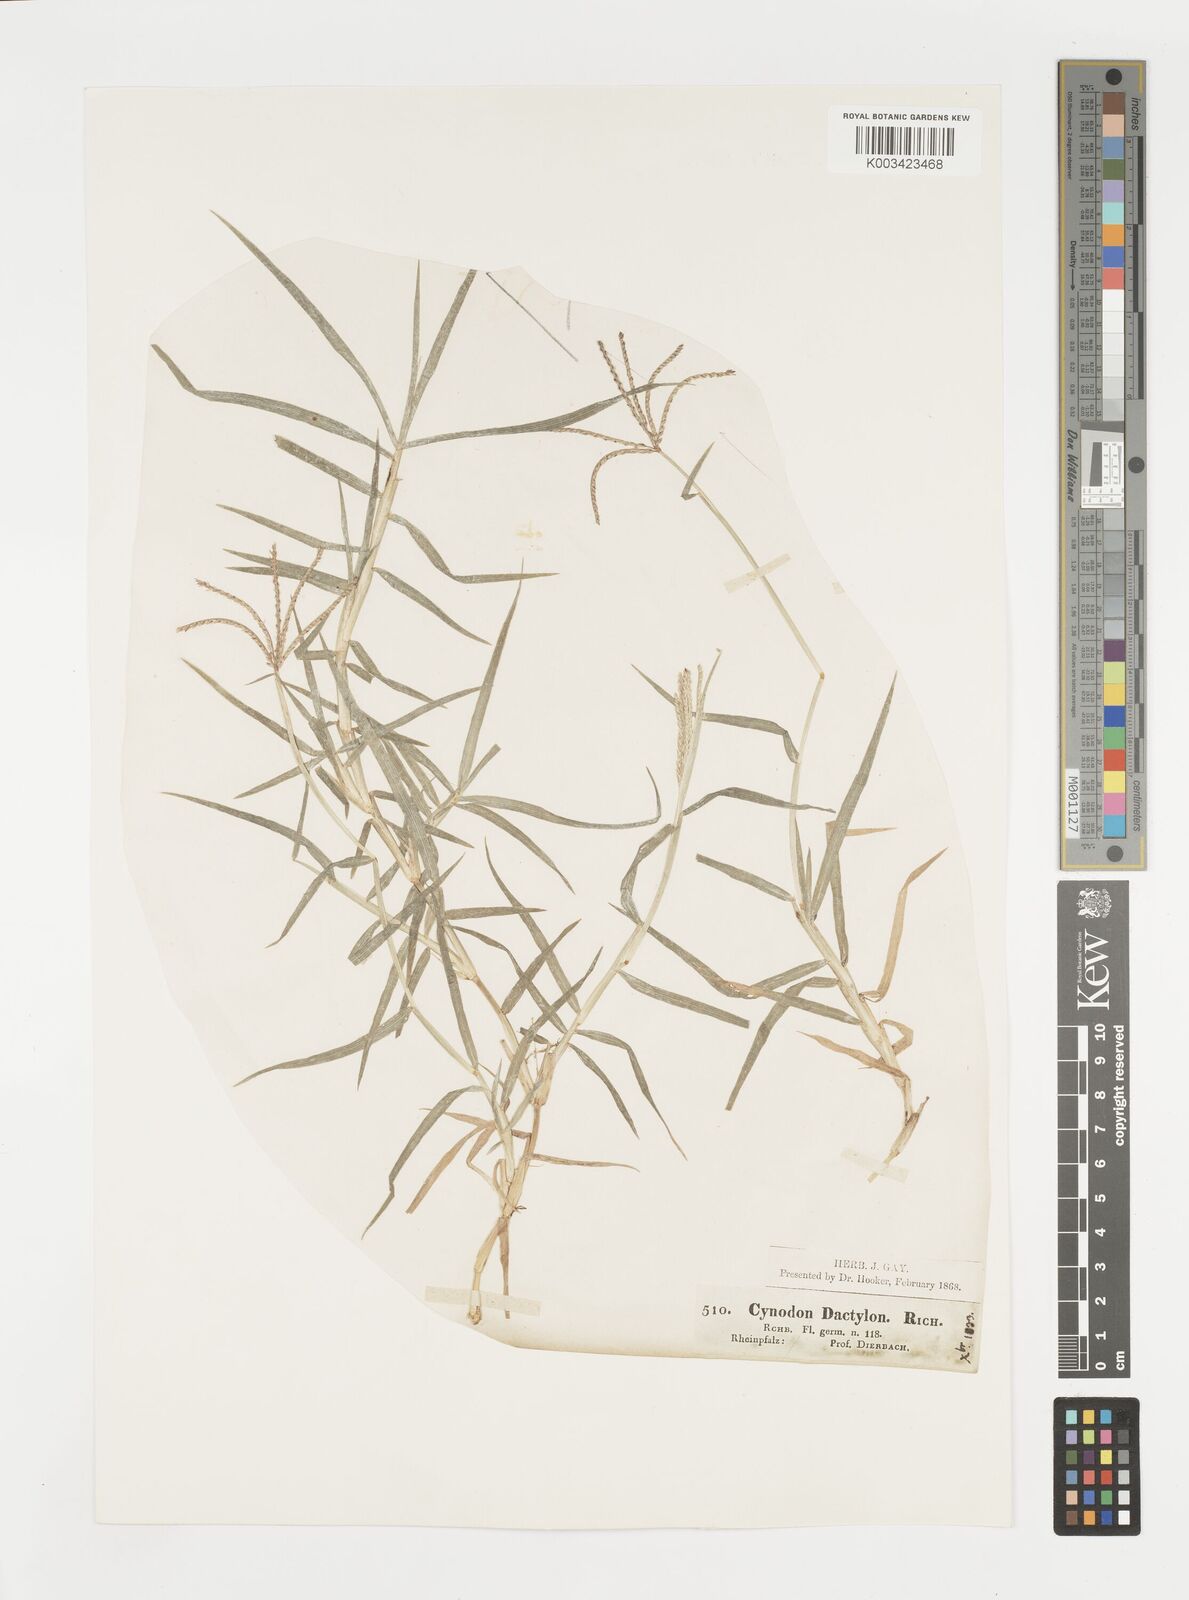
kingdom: Plantae
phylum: Tracheophyta
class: Liliopsida
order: Poales
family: Poaceae
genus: Cynodon
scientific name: Cynodon dactylon
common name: Bermuda grass
